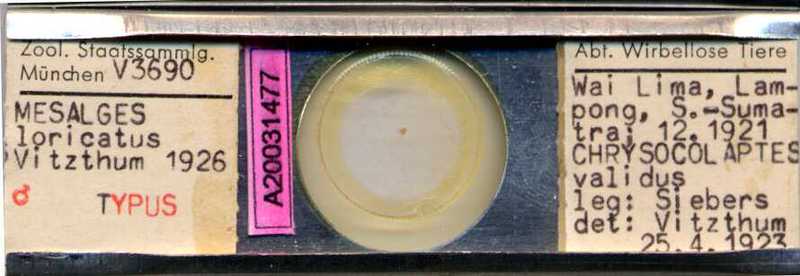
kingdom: Animalia
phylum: Arthropoda
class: Arachnida
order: Sarcoptiformes
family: Psoroptoididae
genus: Mesalges
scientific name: Mesalges
